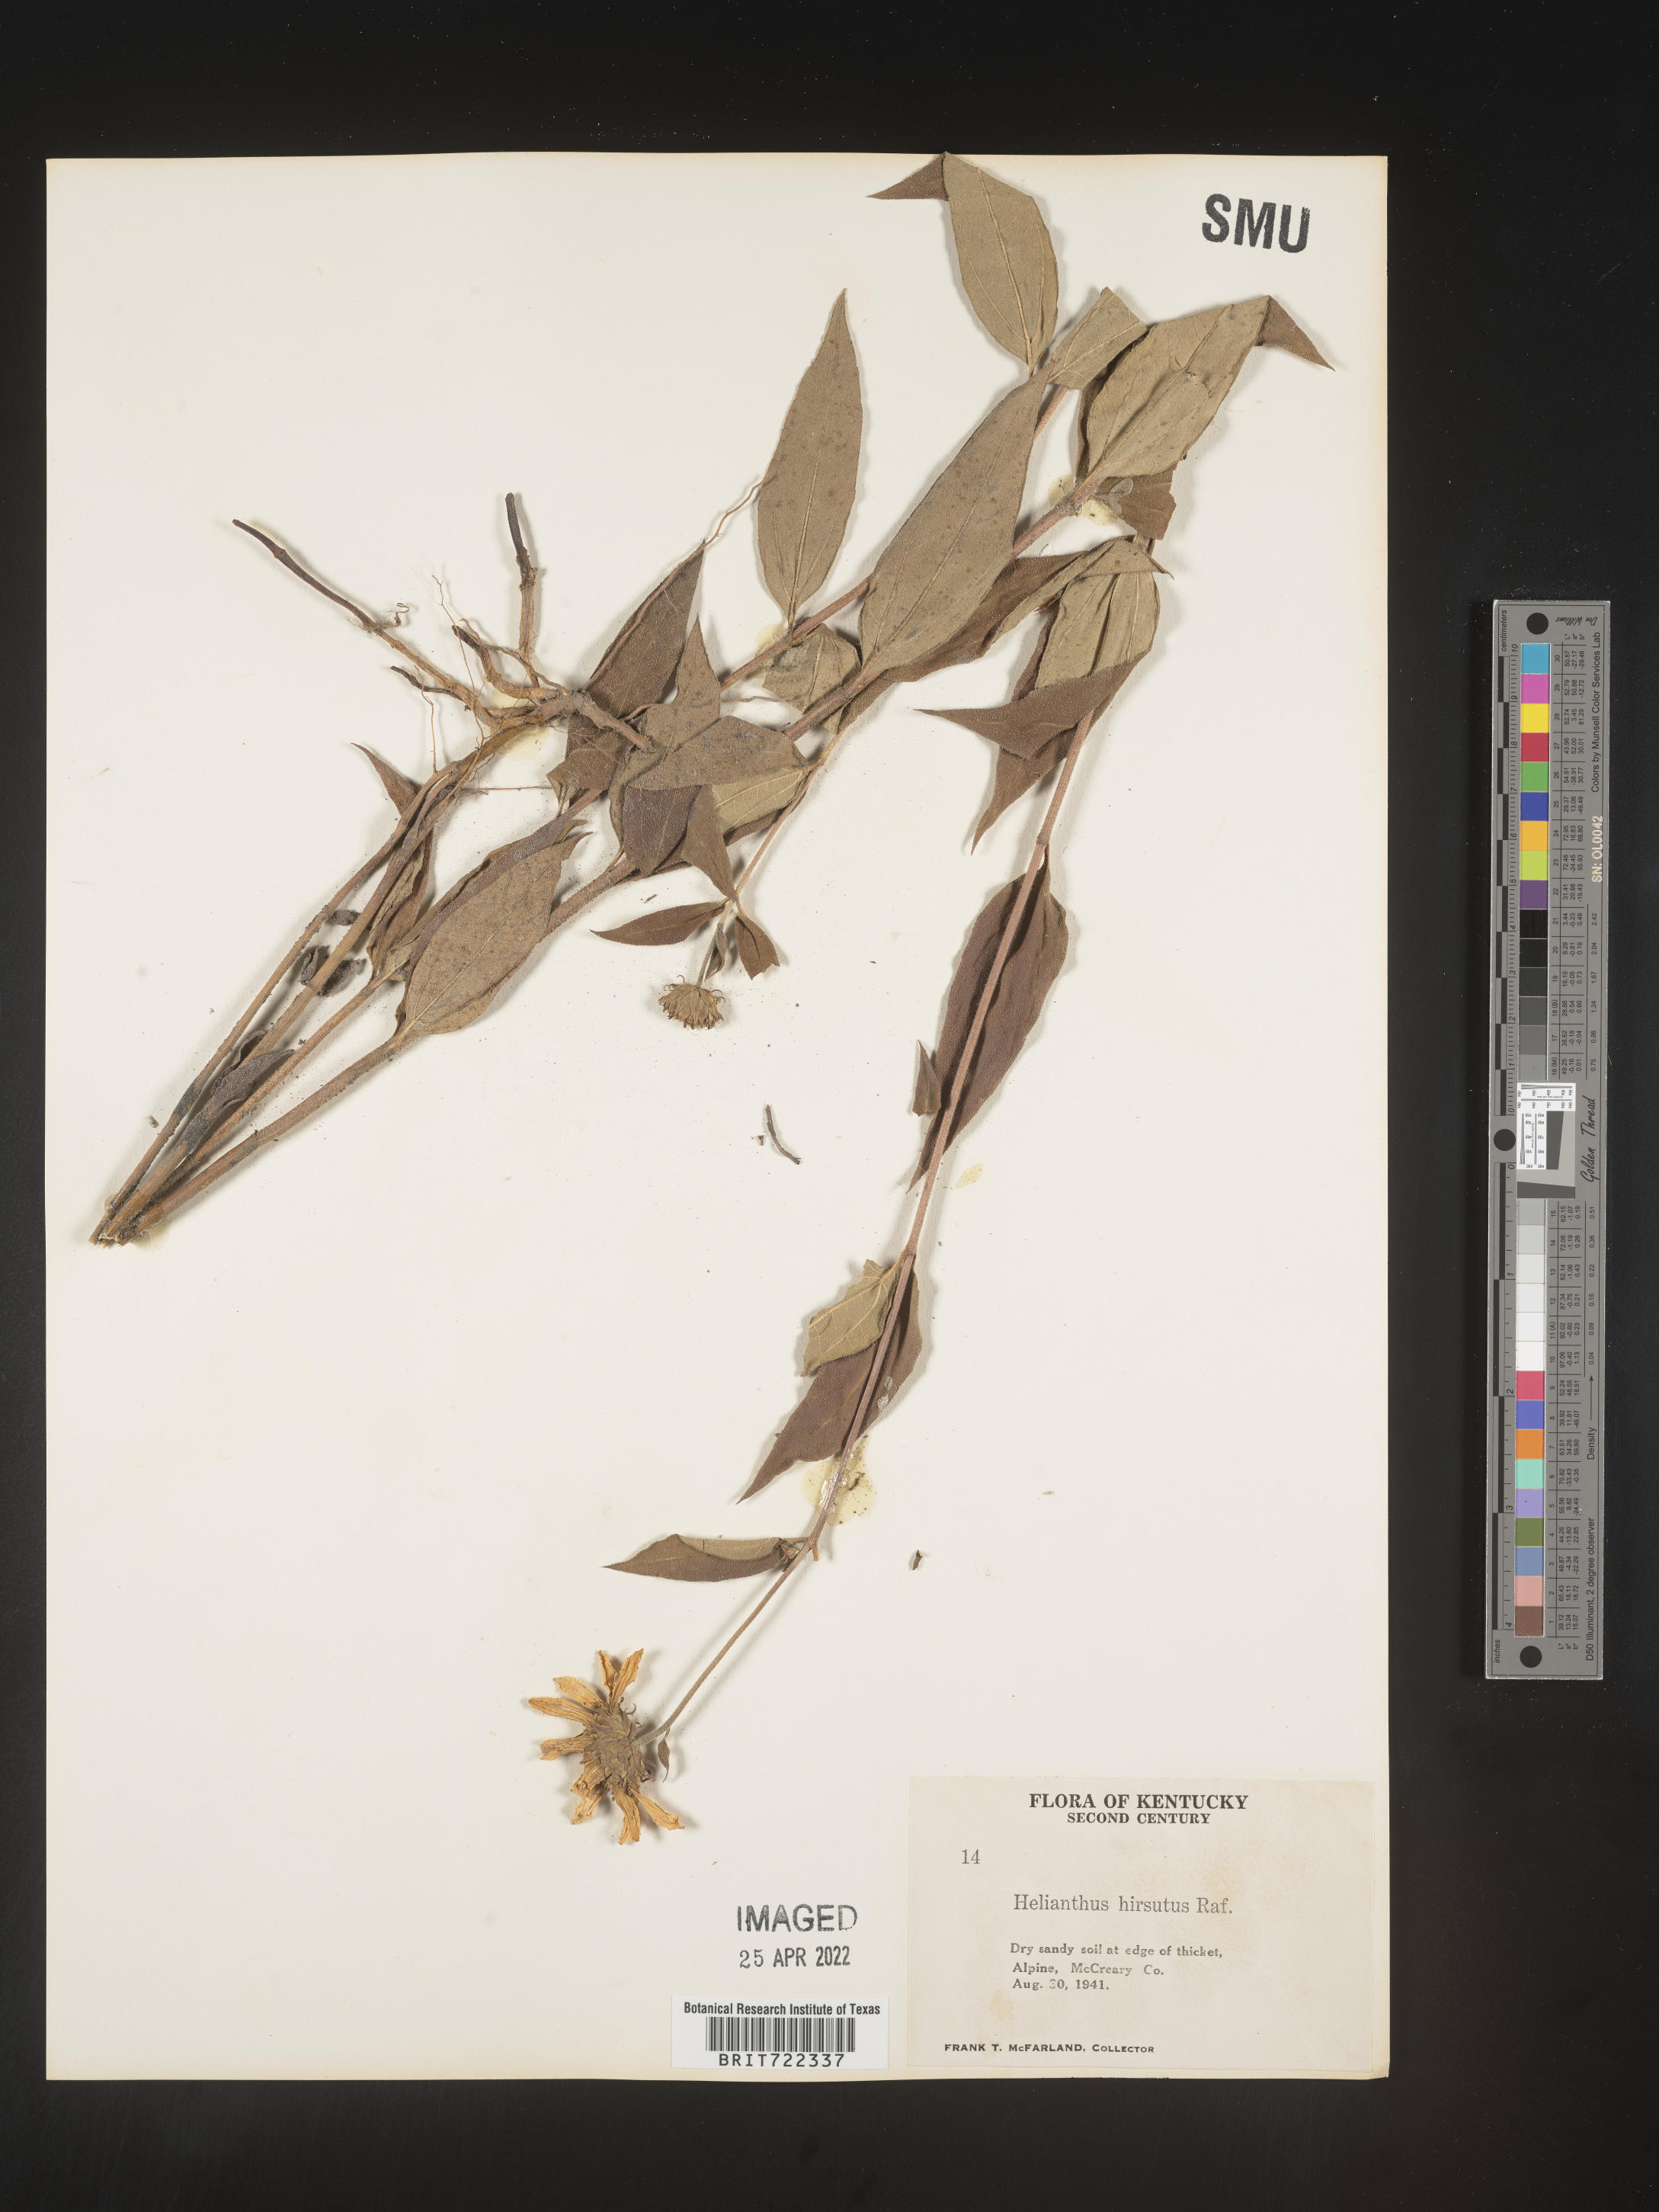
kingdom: Plantae
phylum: Tracheophyta
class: Magnoliopsida
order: Asterales
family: Asteraceae
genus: Helianthus
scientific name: Helianthus hirsutus
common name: Hairy sunflower
